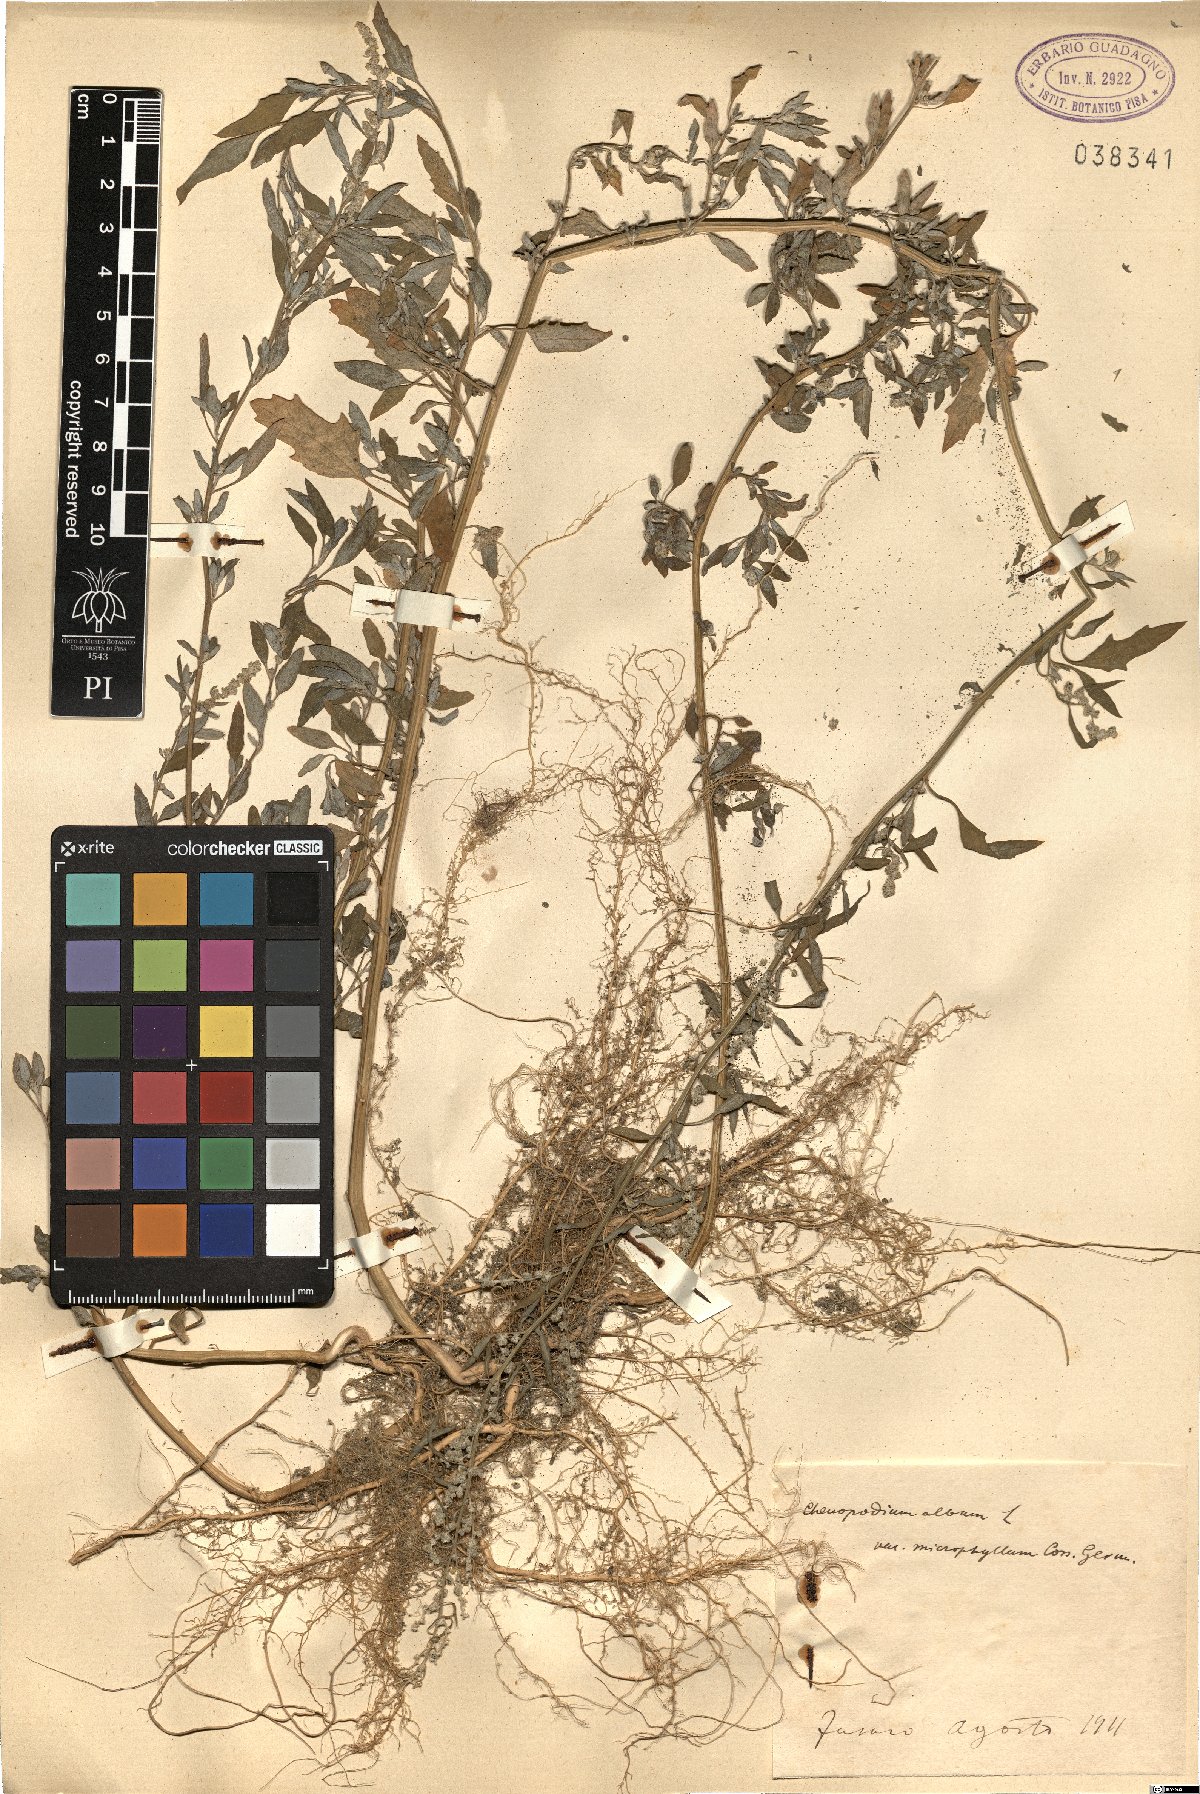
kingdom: Plantae
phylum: Tracheophyta
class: Magnoliopsida
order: Caryophyllales
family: Amaranthaceae
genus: Chenopodium
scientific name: Chenopodium striatiforme
